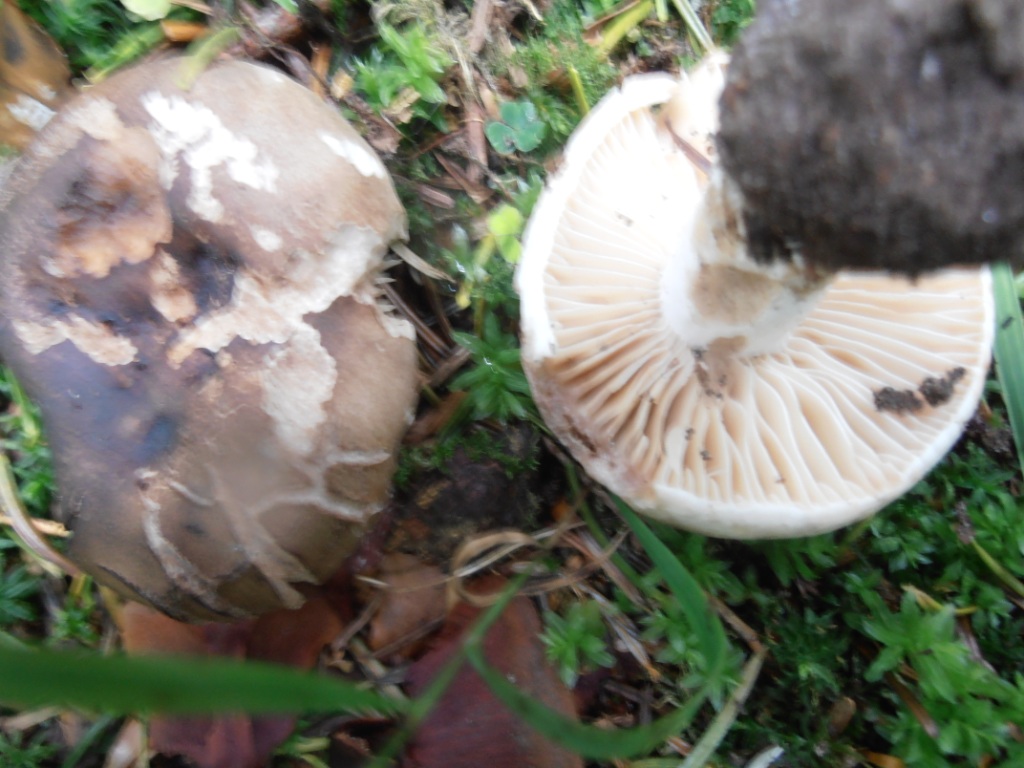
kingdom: Fungi
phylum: Basidiomycota
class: Agaricomycetes
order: Russulales
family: Russulaceae
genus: Russula
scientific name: Russula adusta
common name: sværtende skørhat
